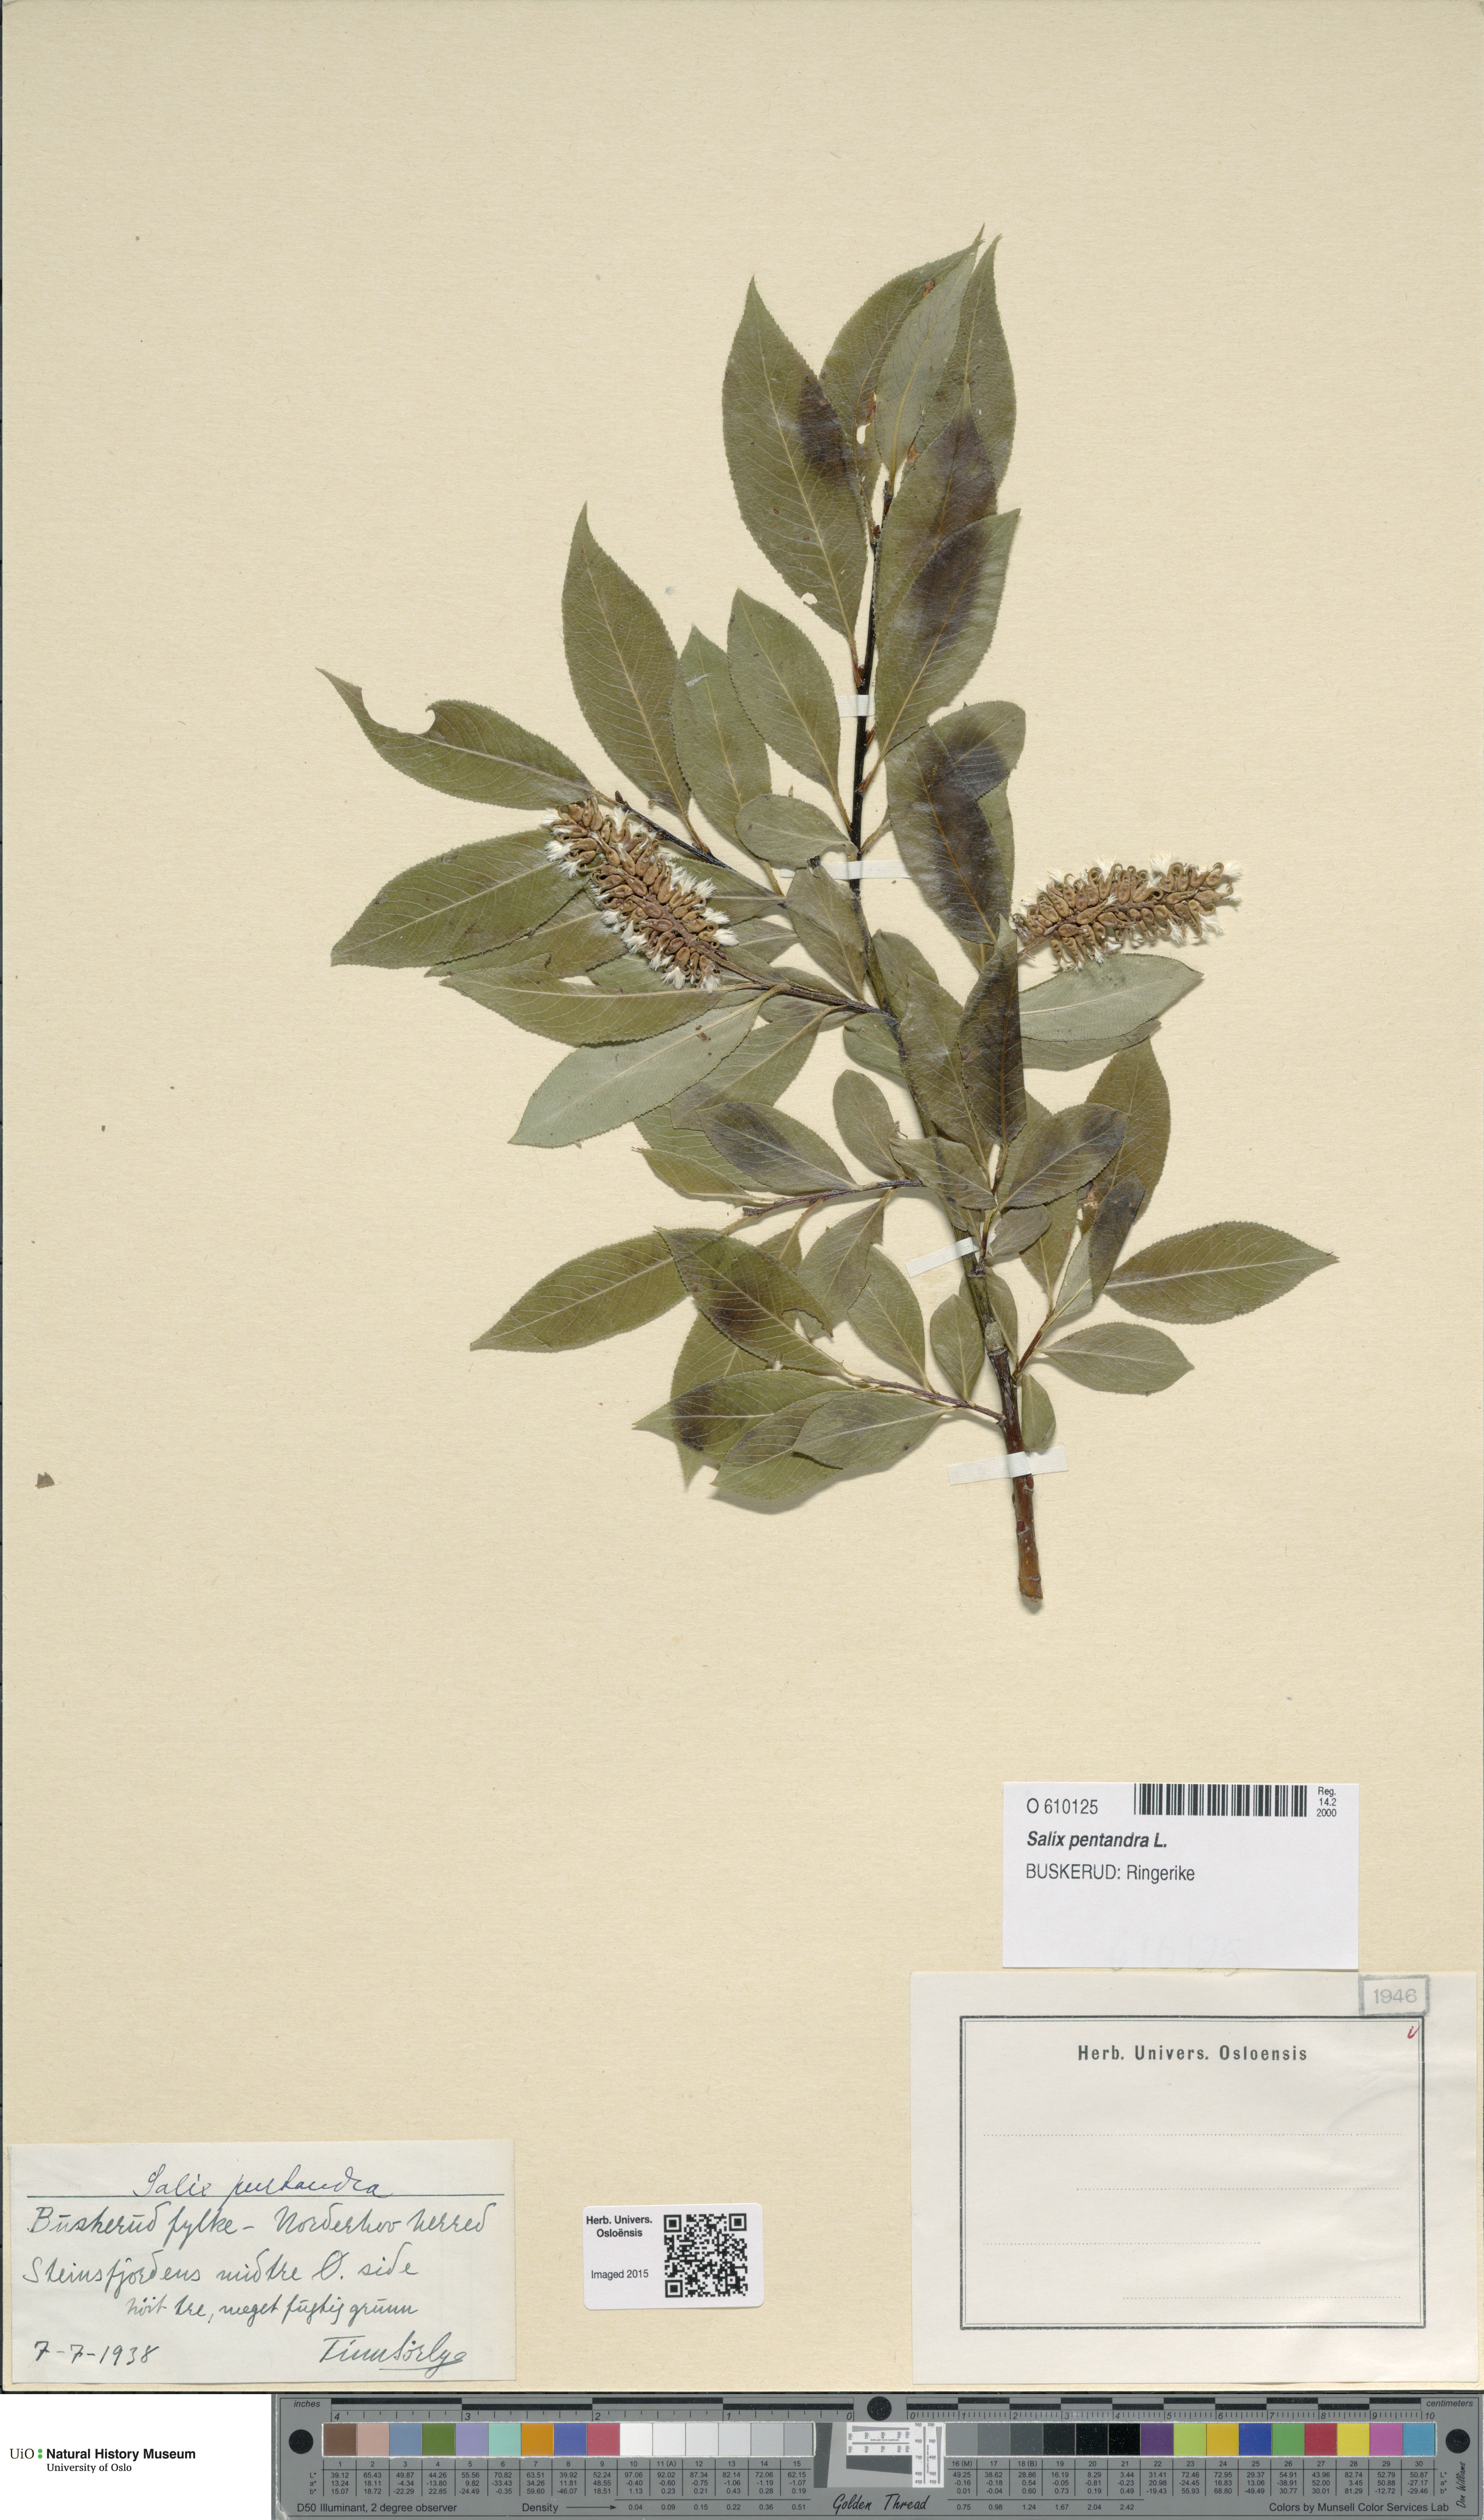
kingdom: Plantae
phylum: Tracheophyta
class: Magnoliopsida
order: Malpighiales
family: Salicaceae
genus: Salix
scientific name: Salix pentandra
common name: Bay willow
